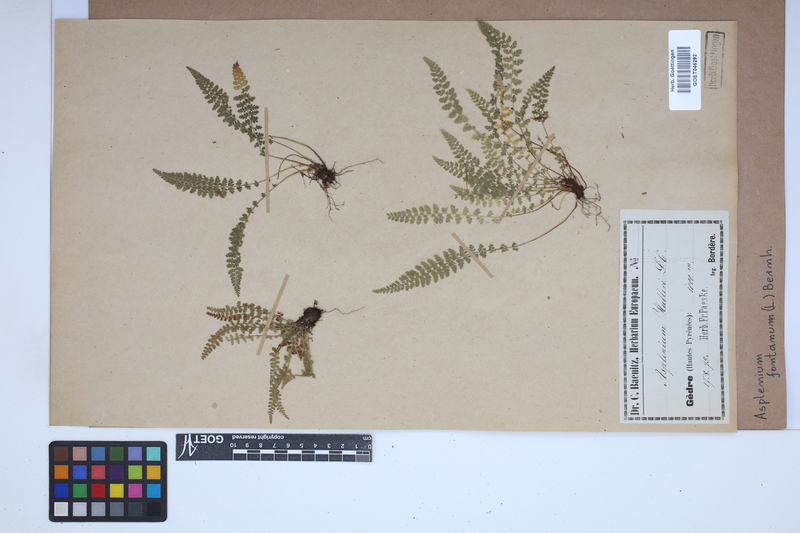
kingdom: Plantae
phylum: Tracheophyta
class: Polypodiopsida
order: Polypodiales
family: Aspleniaceae
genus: Asplenium
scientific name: Asplenium fontanum
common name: Fountain spleenwort
